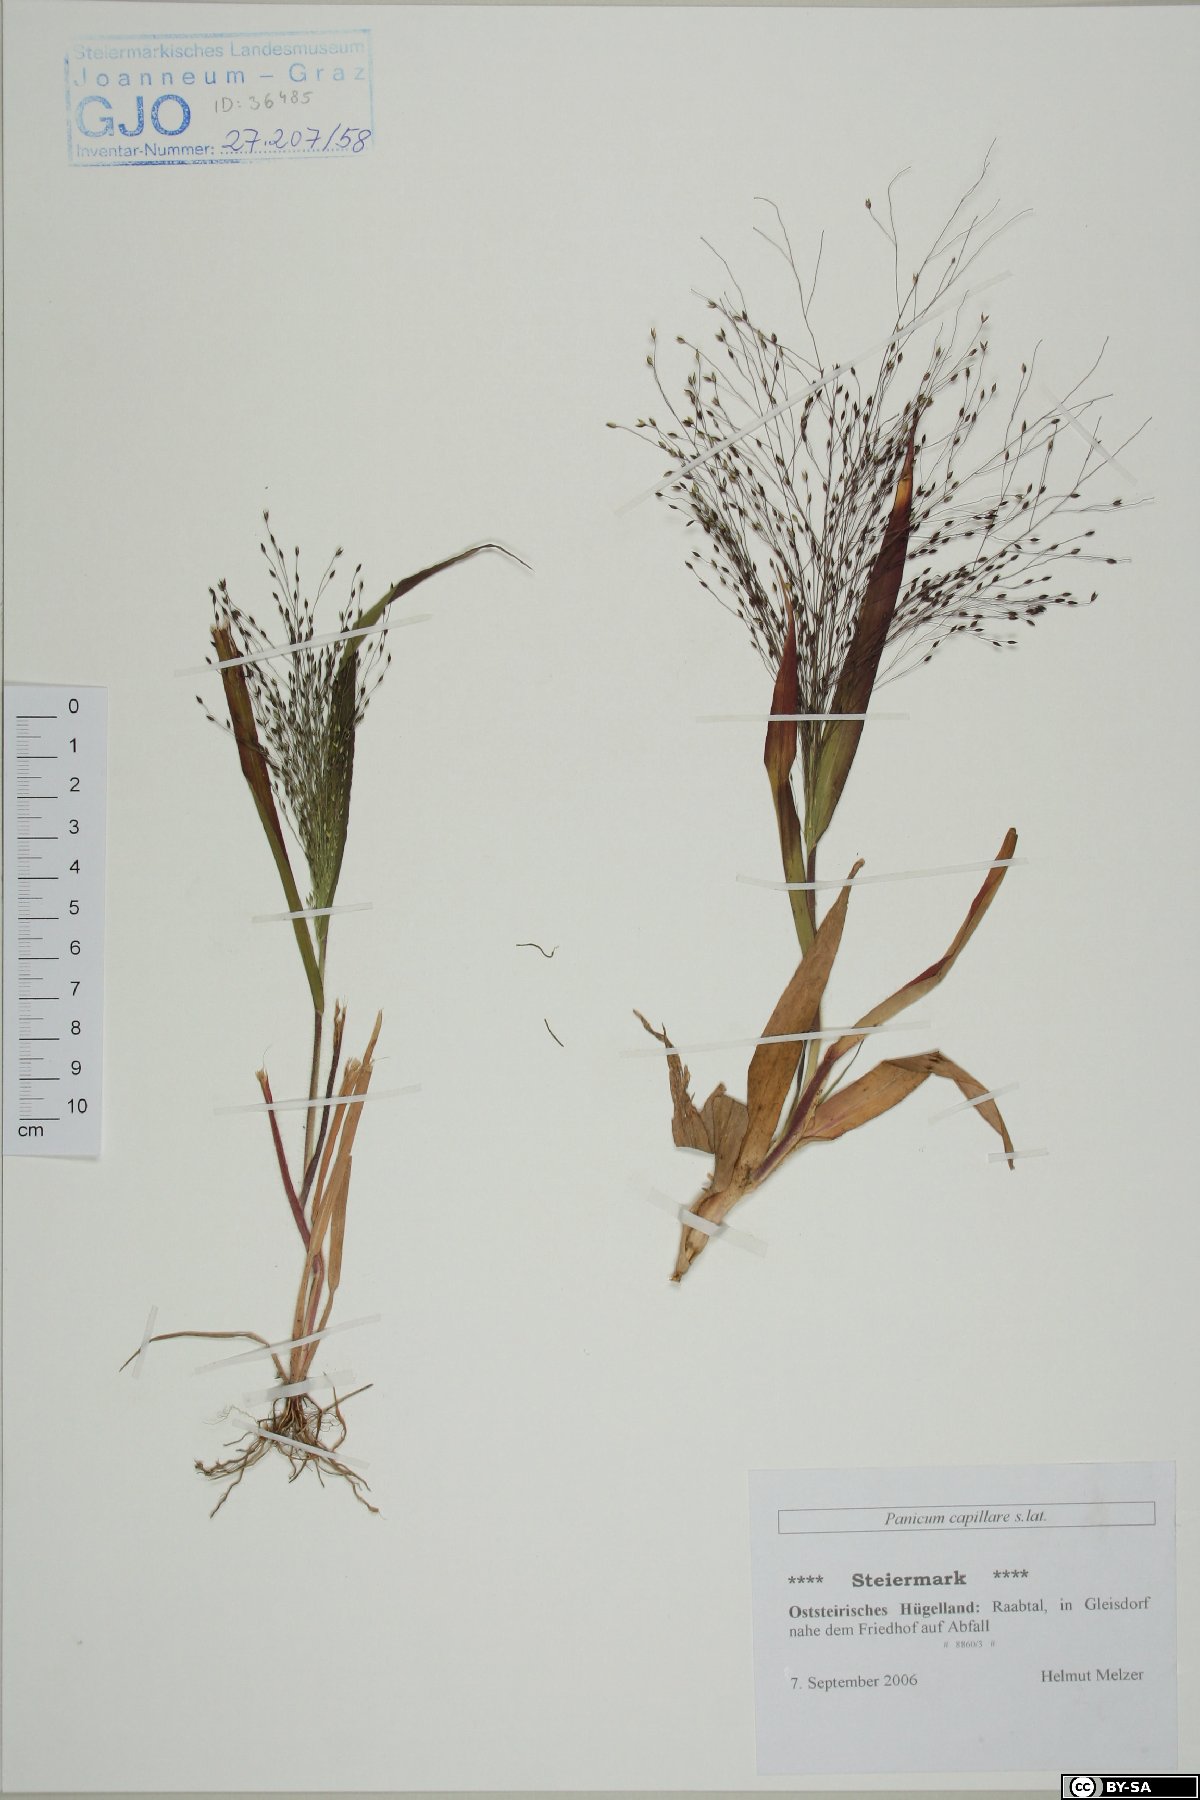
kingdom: Plantae
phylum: Tracheophyta
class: Liliopsida
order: Poales
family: Poaceae
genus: Panicum
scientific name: Panicum capillare
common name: Witch-grass
